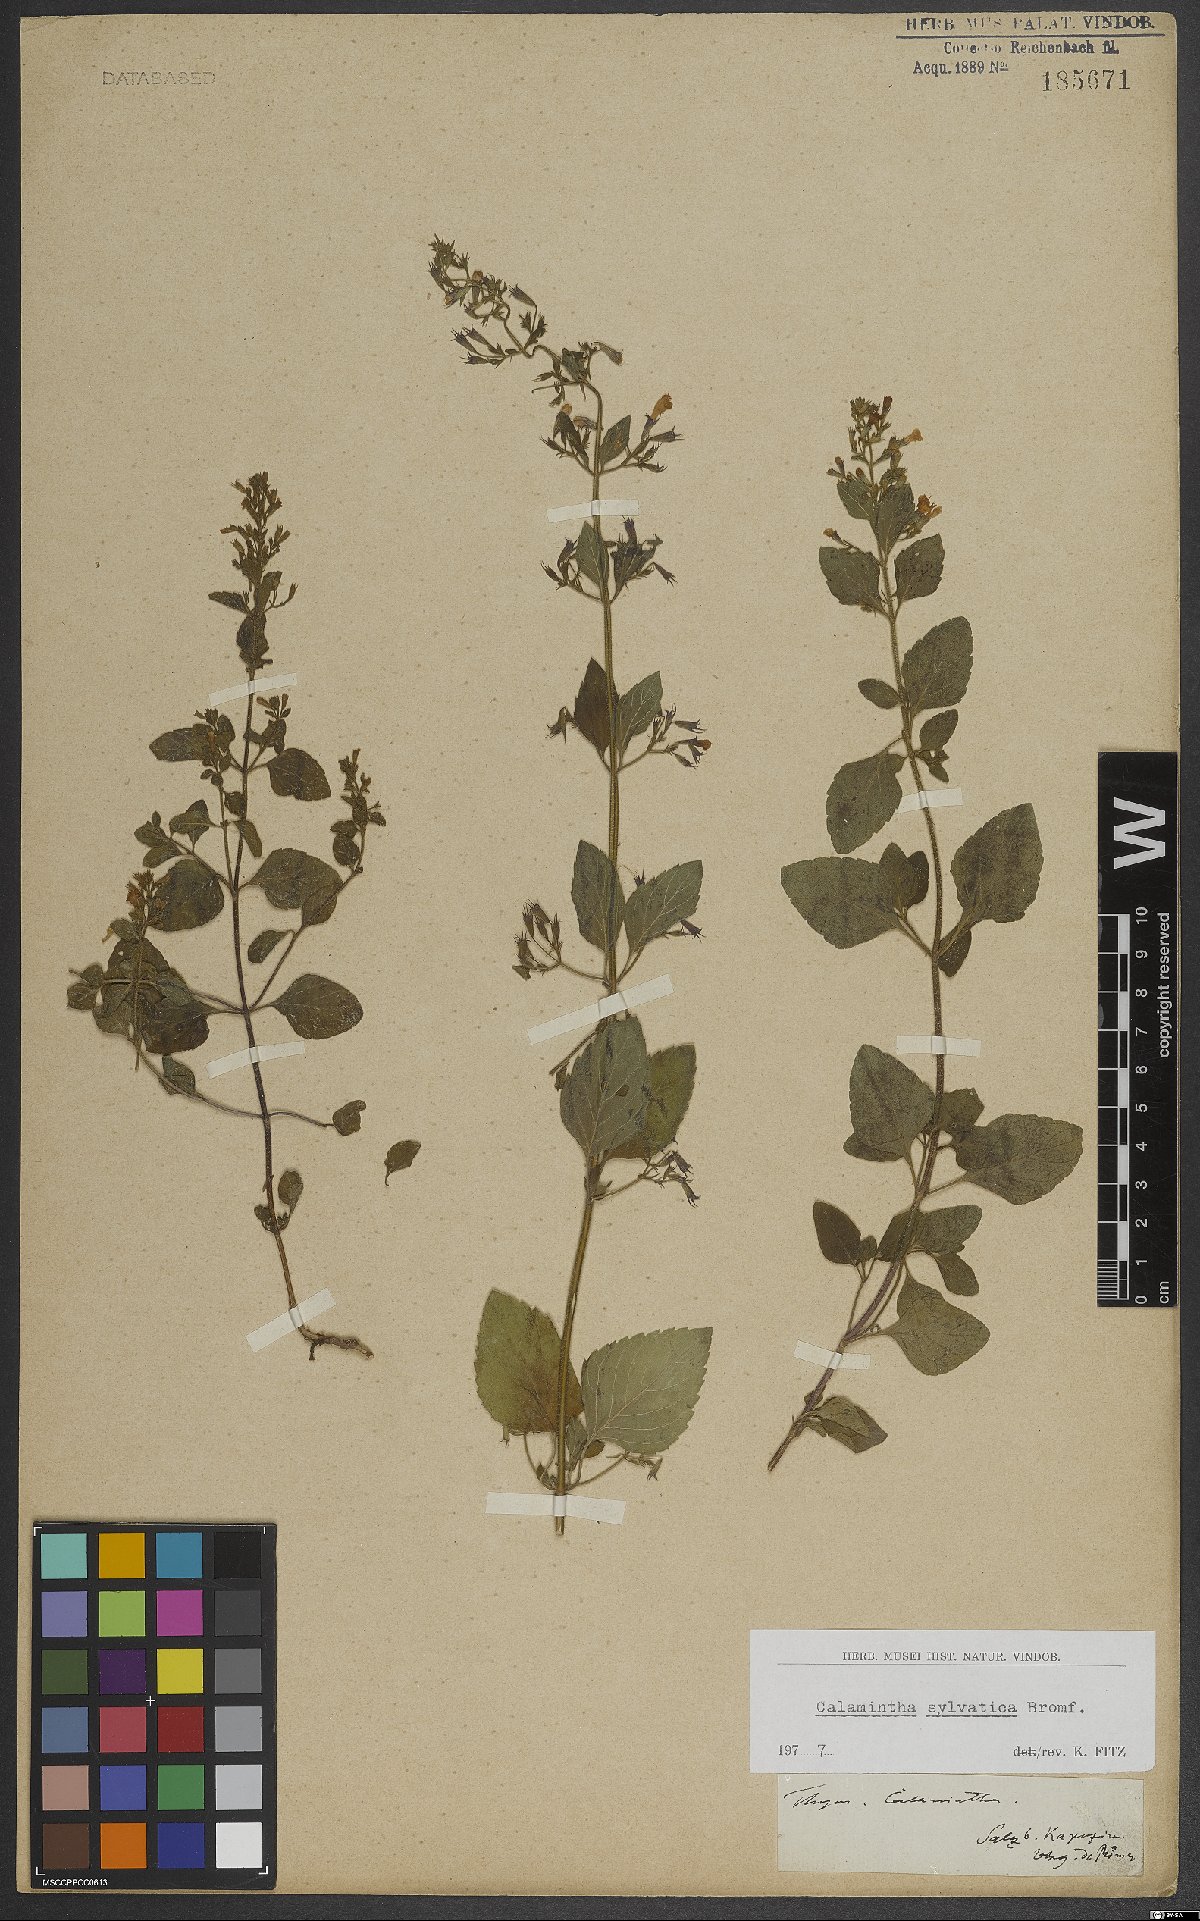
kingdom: Plantae
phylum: Tracheophyta
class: Magnoliopsida
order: Lamiales
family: Lamiaceae
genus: Clinopodium
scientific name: Clinopodium menthifolium
